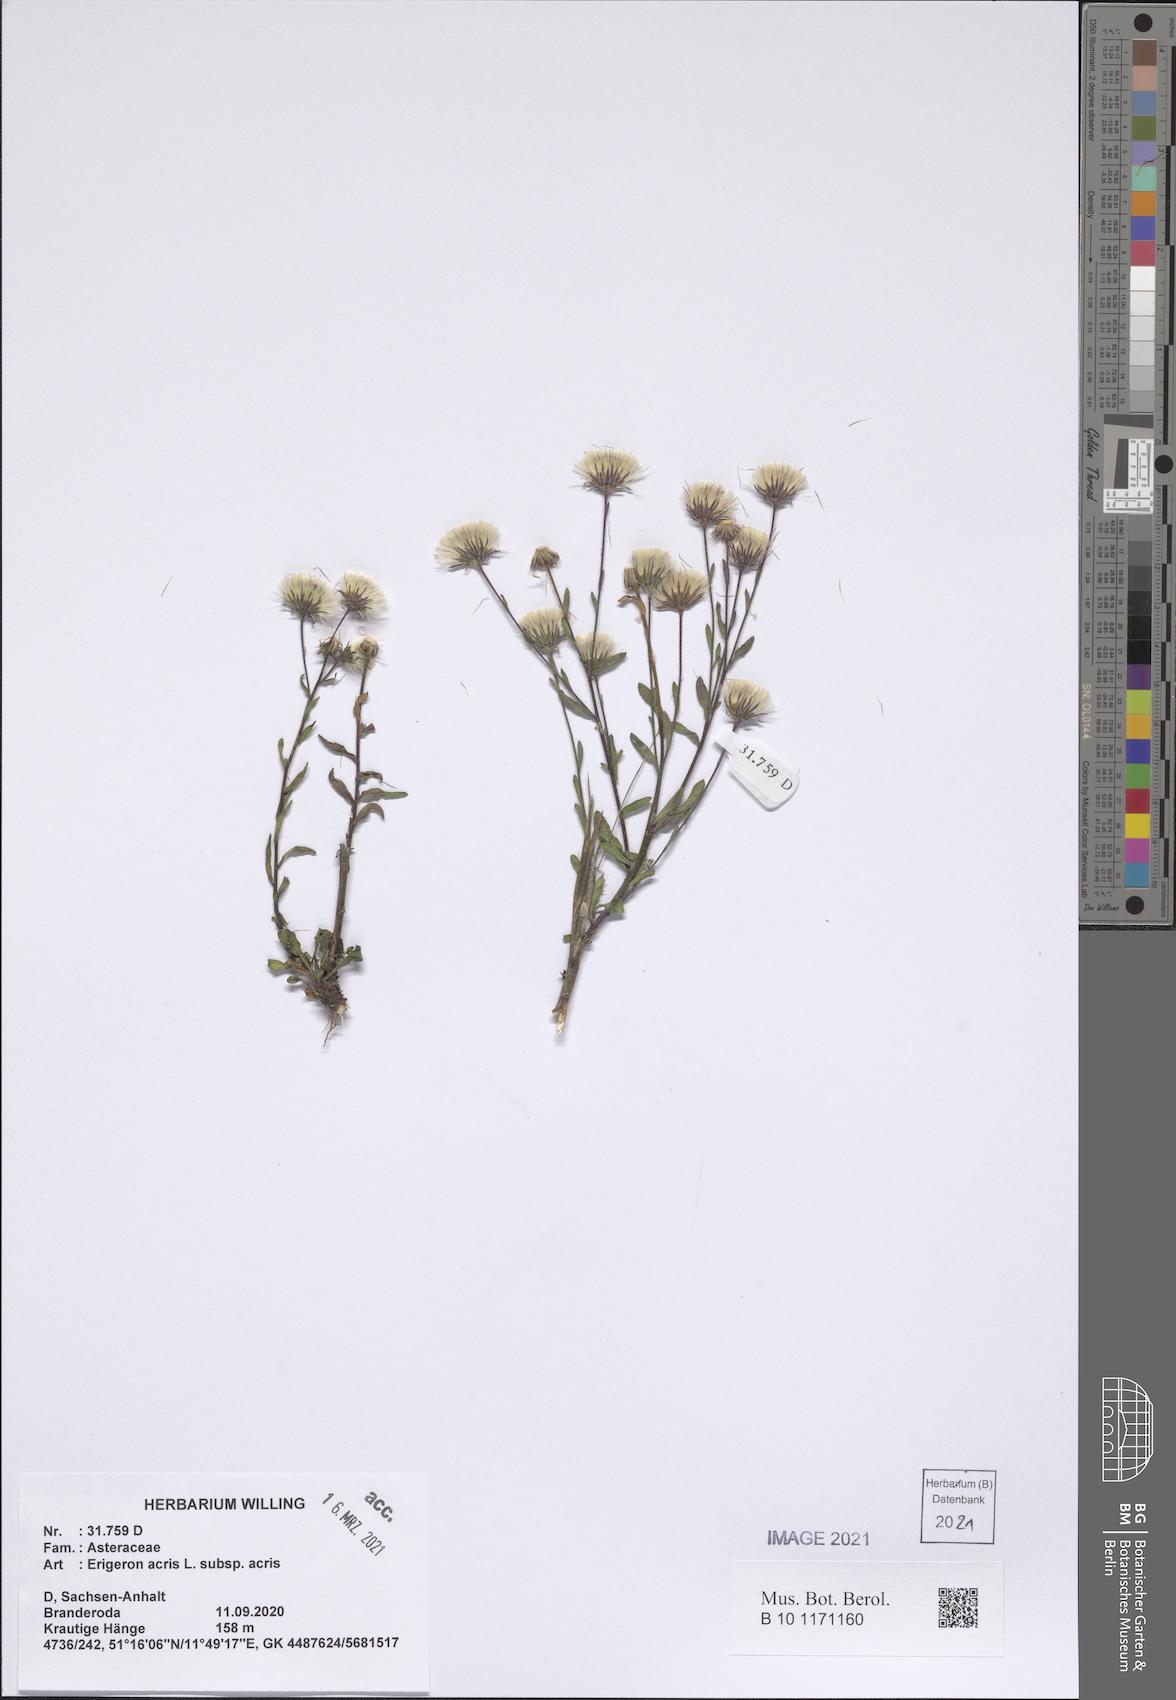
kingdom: Plantae
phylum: Tracheophyta
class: Magnoliopsida
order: Asterales
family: Asteraceae
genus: Erigeron
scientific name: Erigeron acris
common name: Blue fleabane
